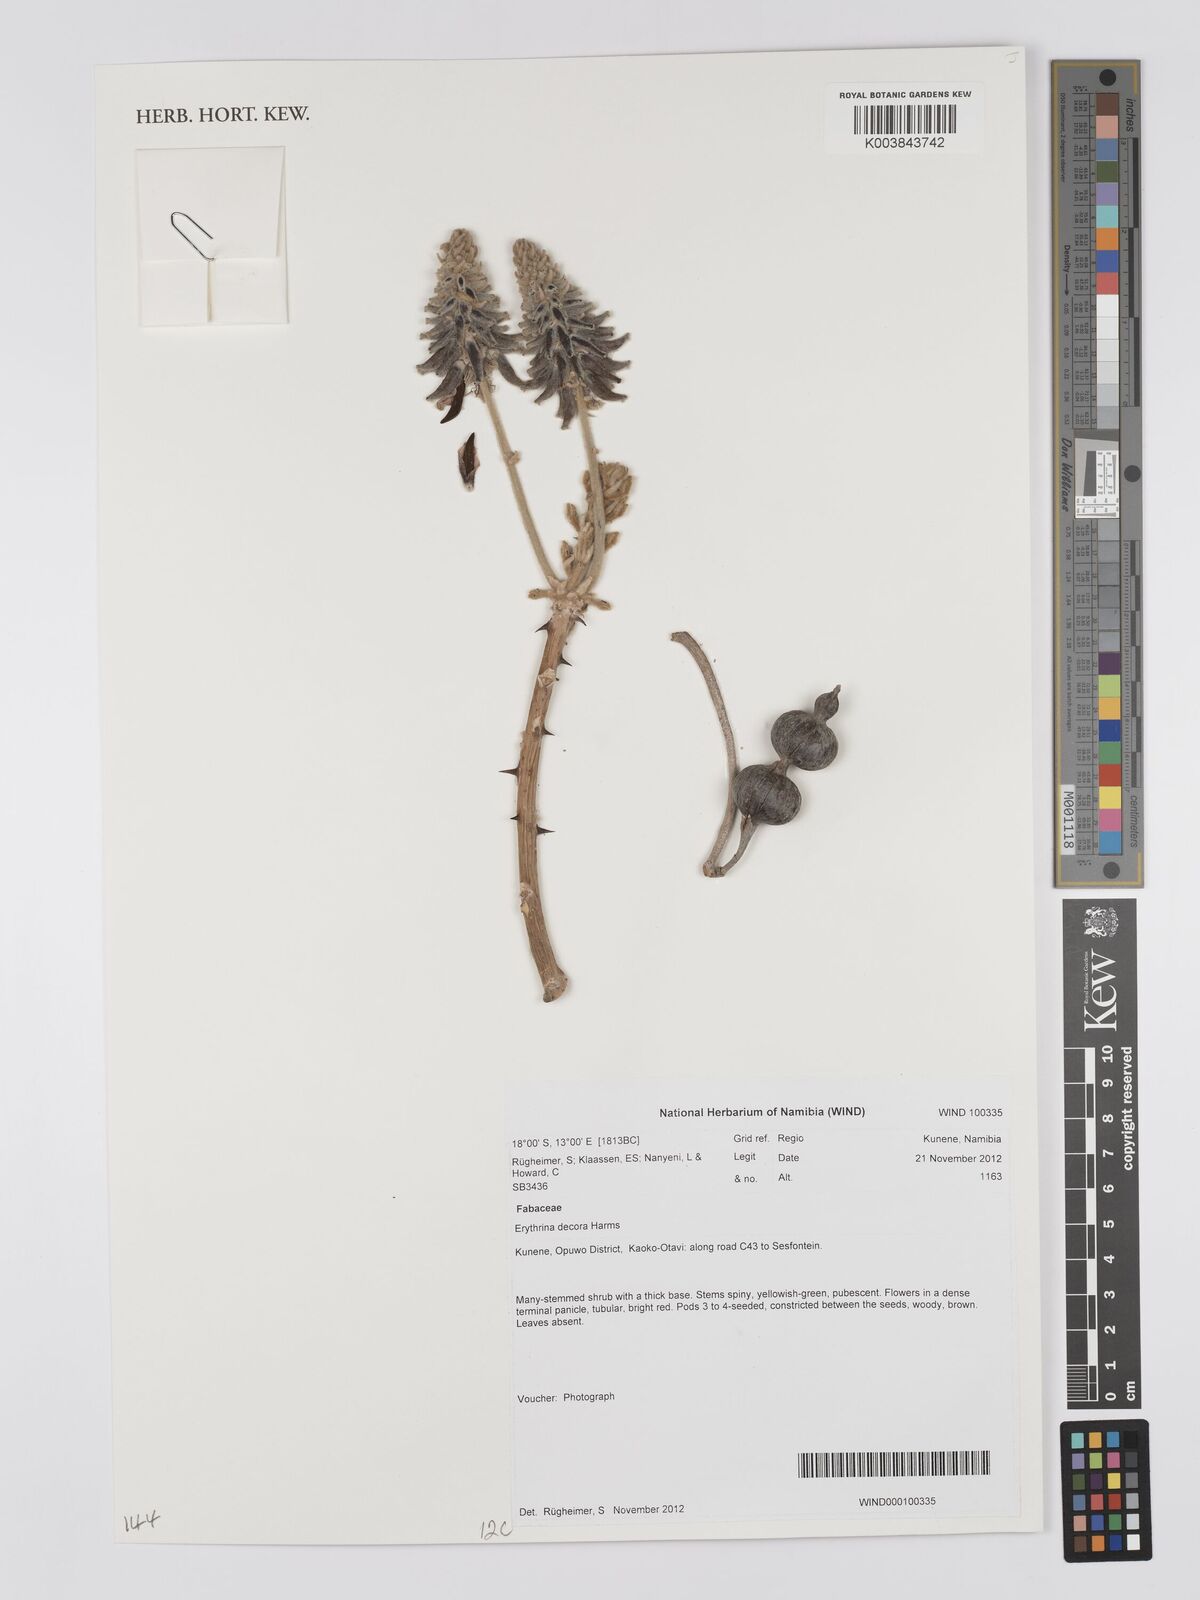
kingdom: Plantae
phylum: Tracheophyta
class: Magnoliopsida
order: Fabales
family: Fabaceae
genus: Erythrina
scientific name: Erythrina decora
